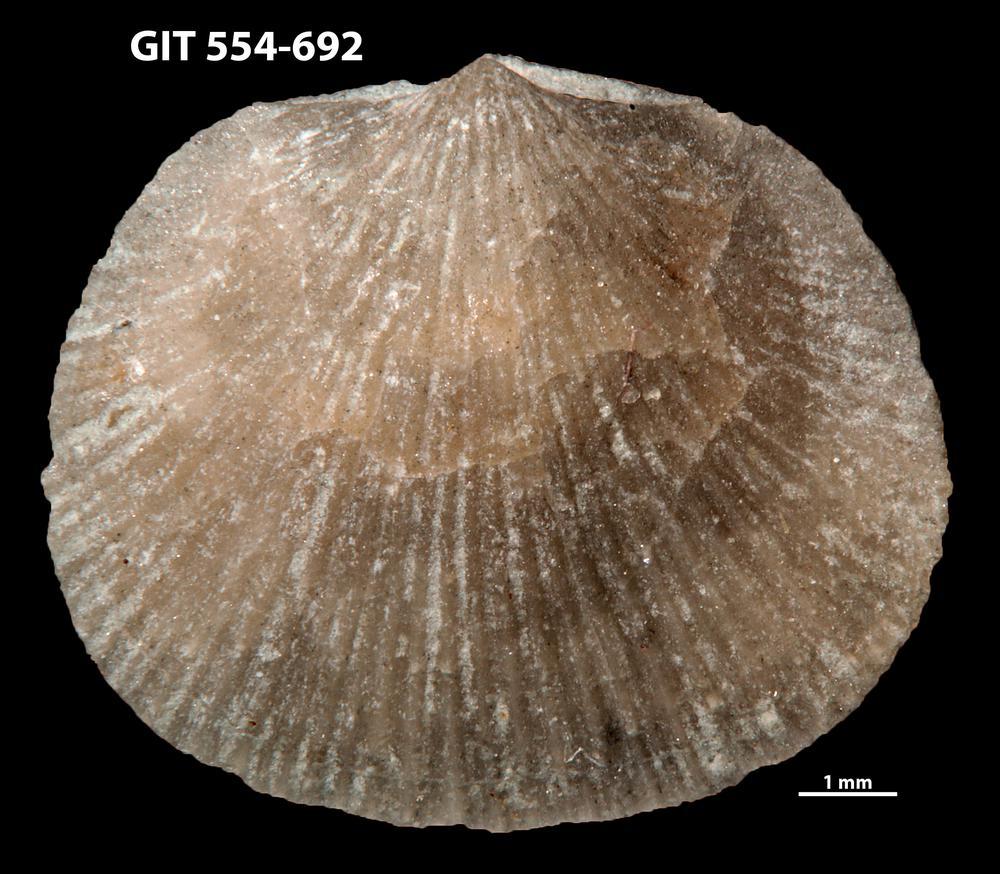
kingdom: Animalia
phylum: Brachiopoda
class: Rhynchonellata
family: Rhipidomellidae
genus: Mendacella
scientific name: Mendacella Orthis hybrida
